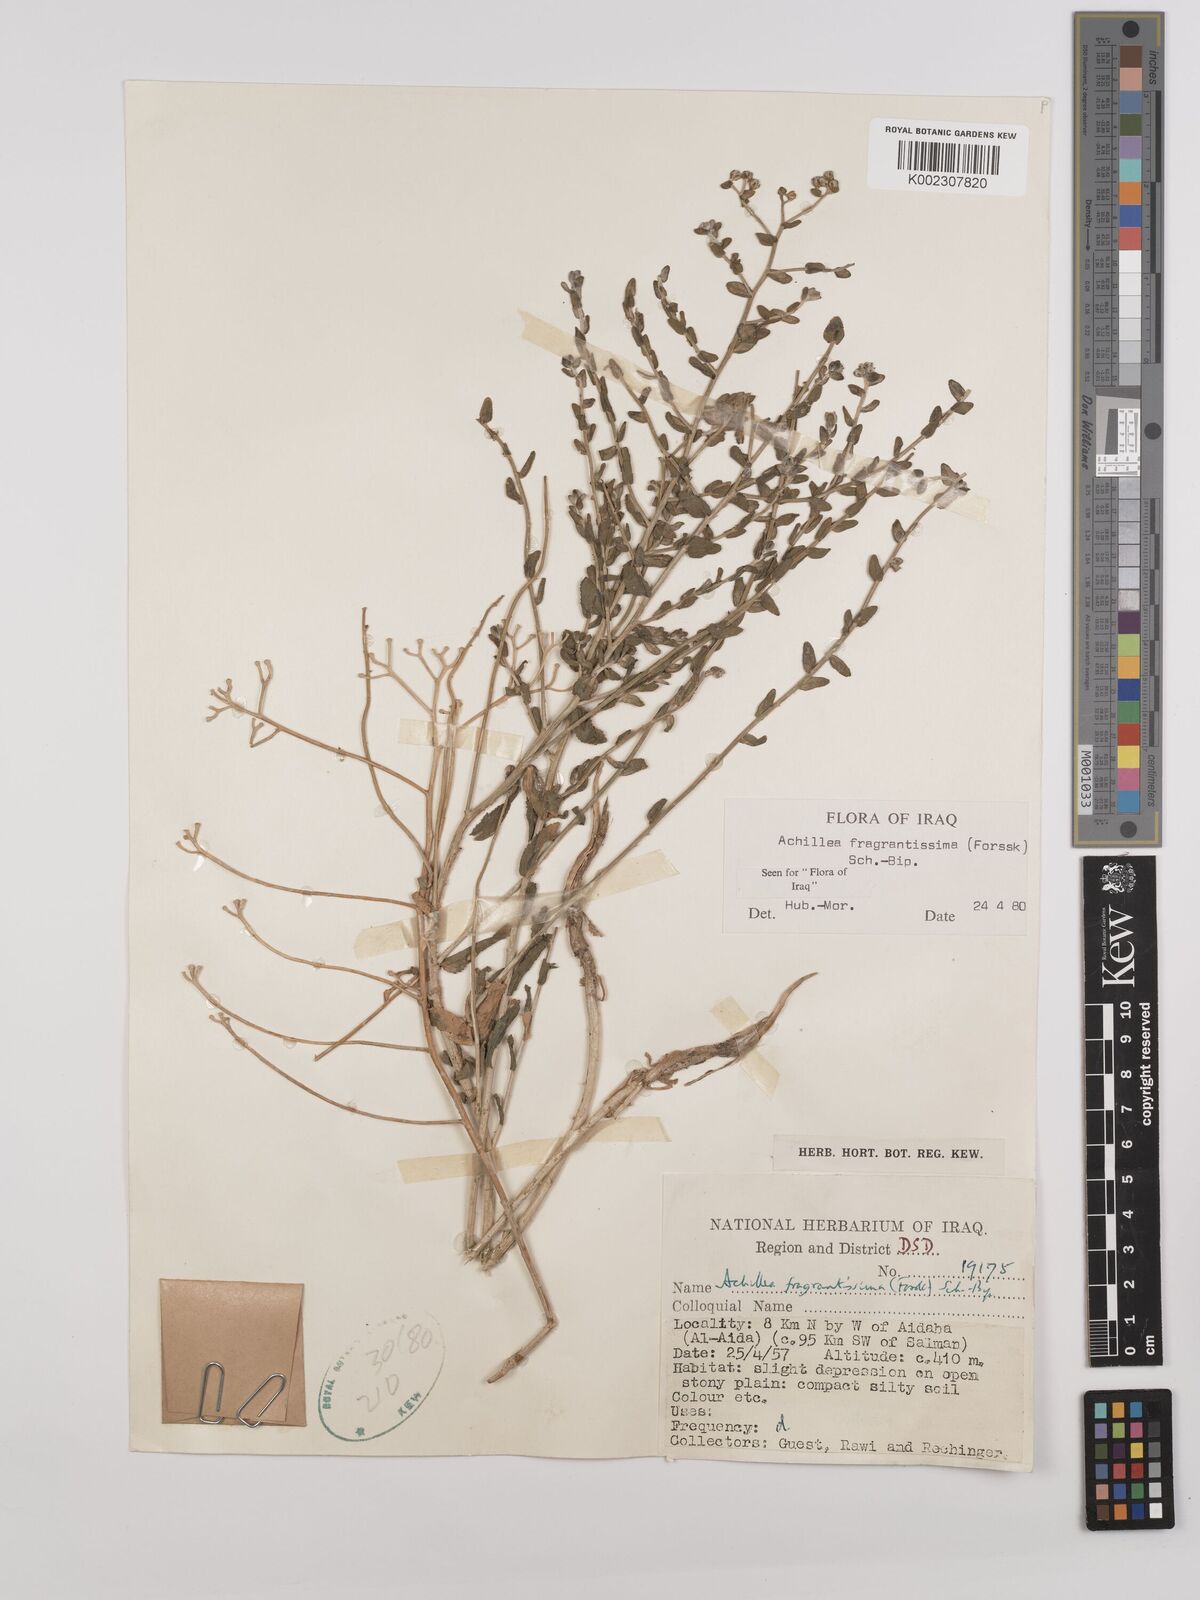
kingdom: Plantae
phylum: Tracheophyta
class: Magnoliopsida
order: Asterales
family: Asteraceae
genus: Achillea
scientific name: Achillea fragrantissima
